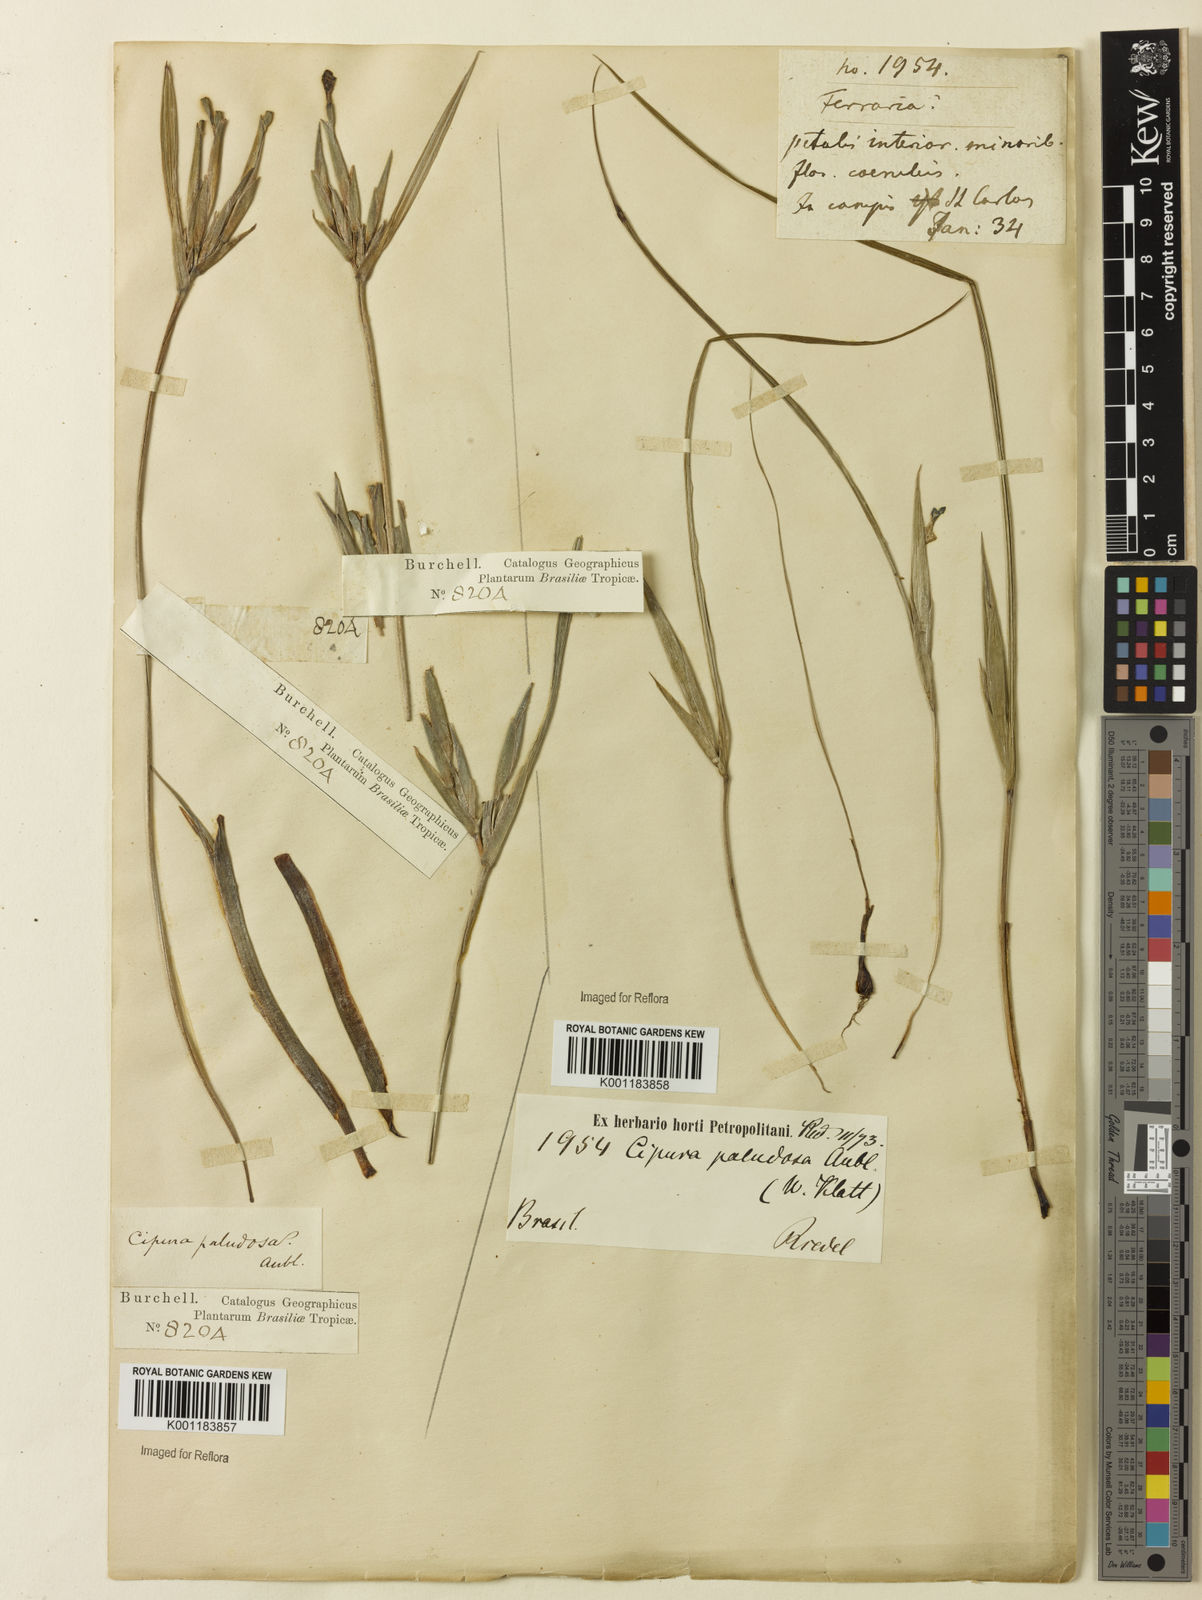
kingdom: Plantae
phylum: Tracheophyta
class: Liliopsida
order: Asparagales
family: Iridaceae
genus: Cipura
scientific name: Cipura paludosa
